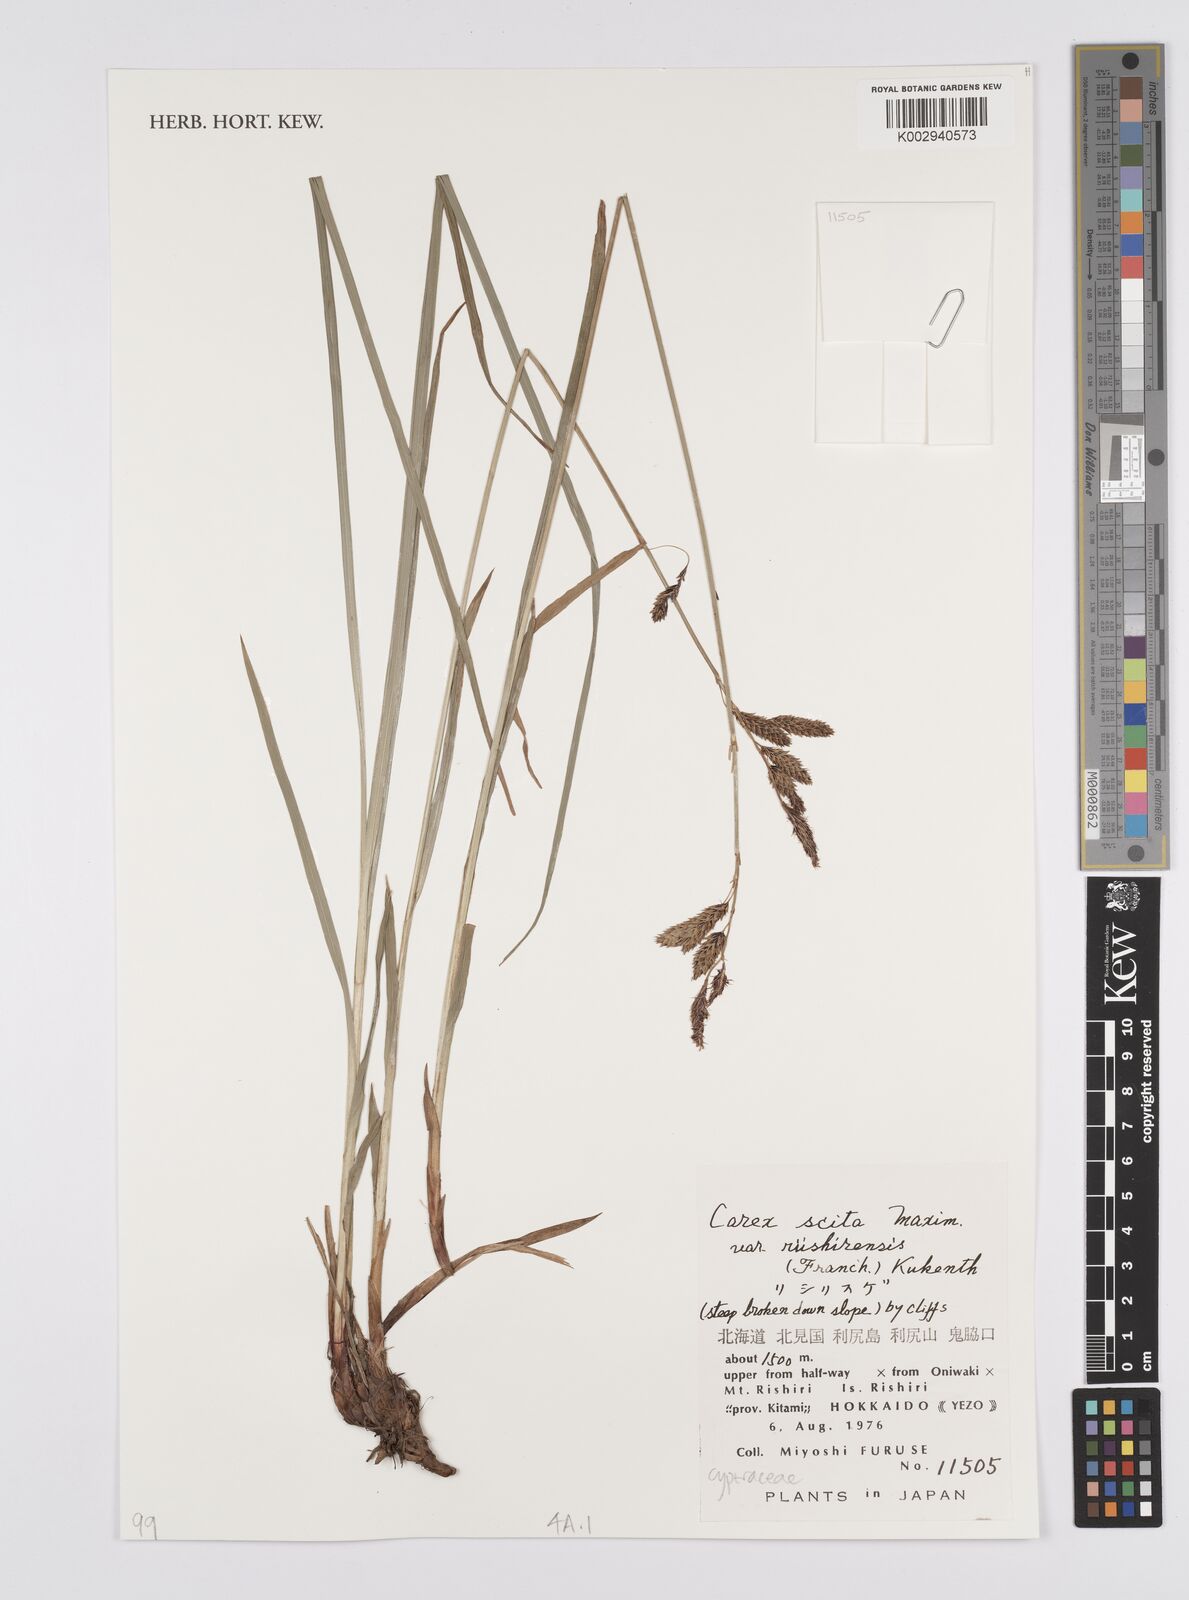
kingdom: Plantae
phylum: Tracheophyta
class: Liliopsida
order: Poales
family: Cyperaceae
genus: Carex
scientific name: Carex scita
